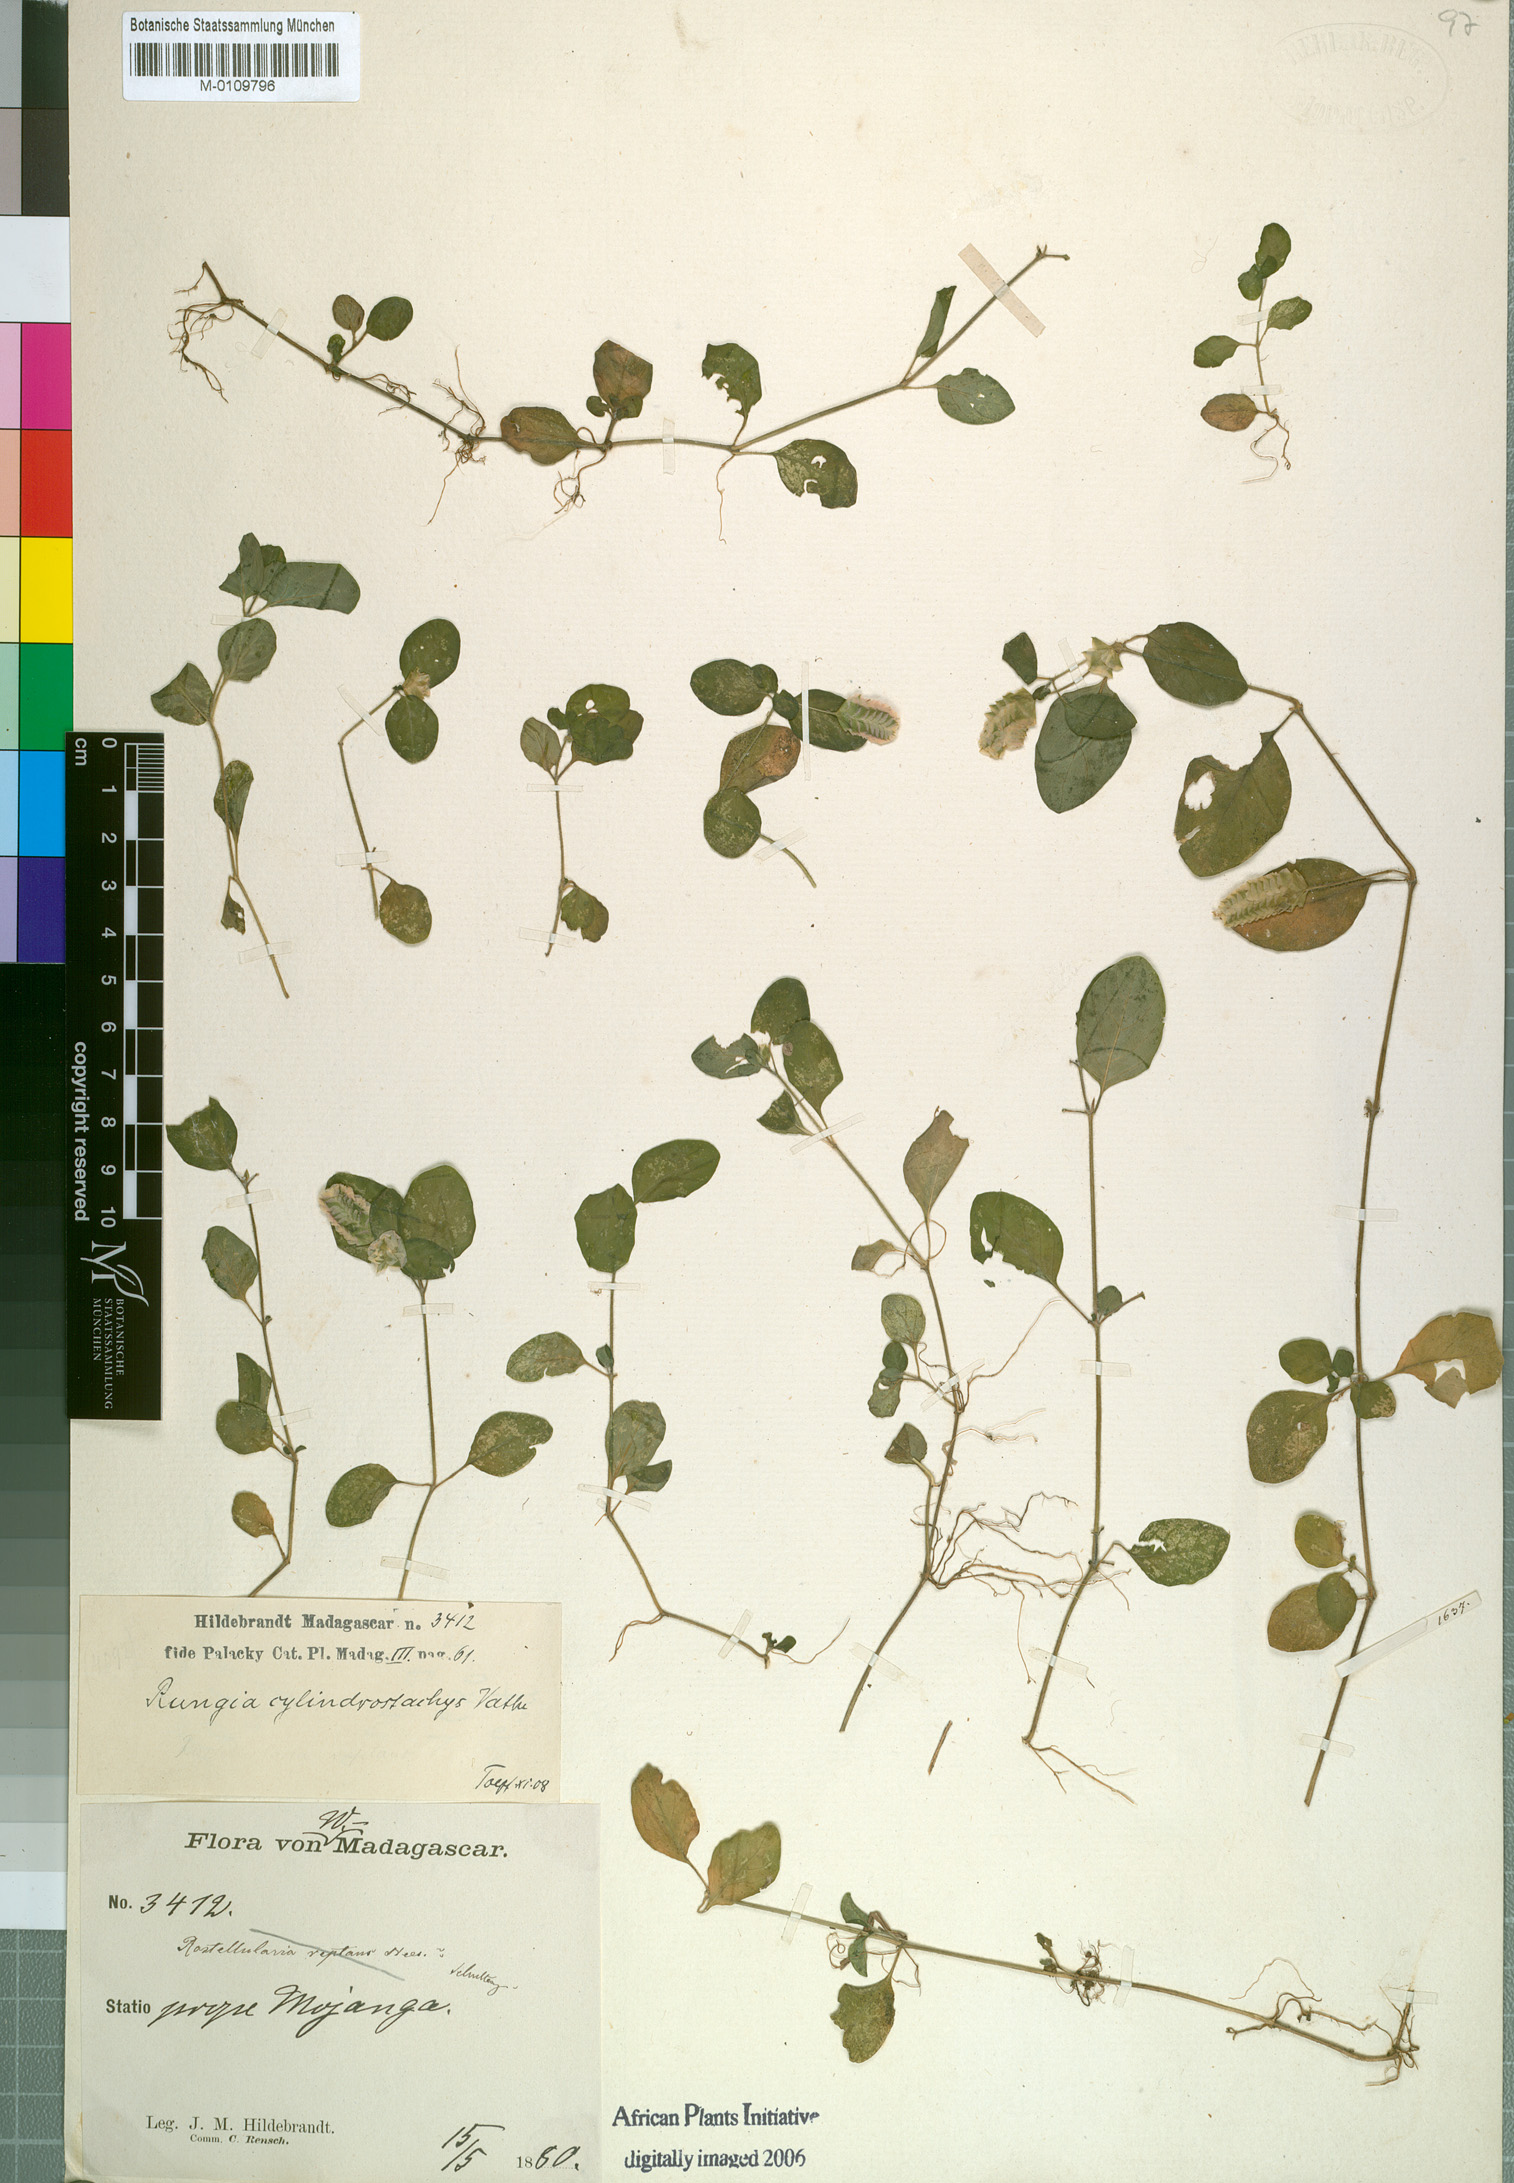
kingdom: Plantae
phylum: Tracheophyta
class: Magnoliopsida
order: Lamiales
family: Acanthaceae
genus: Anisostachya
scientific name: Anisostachya reptans
